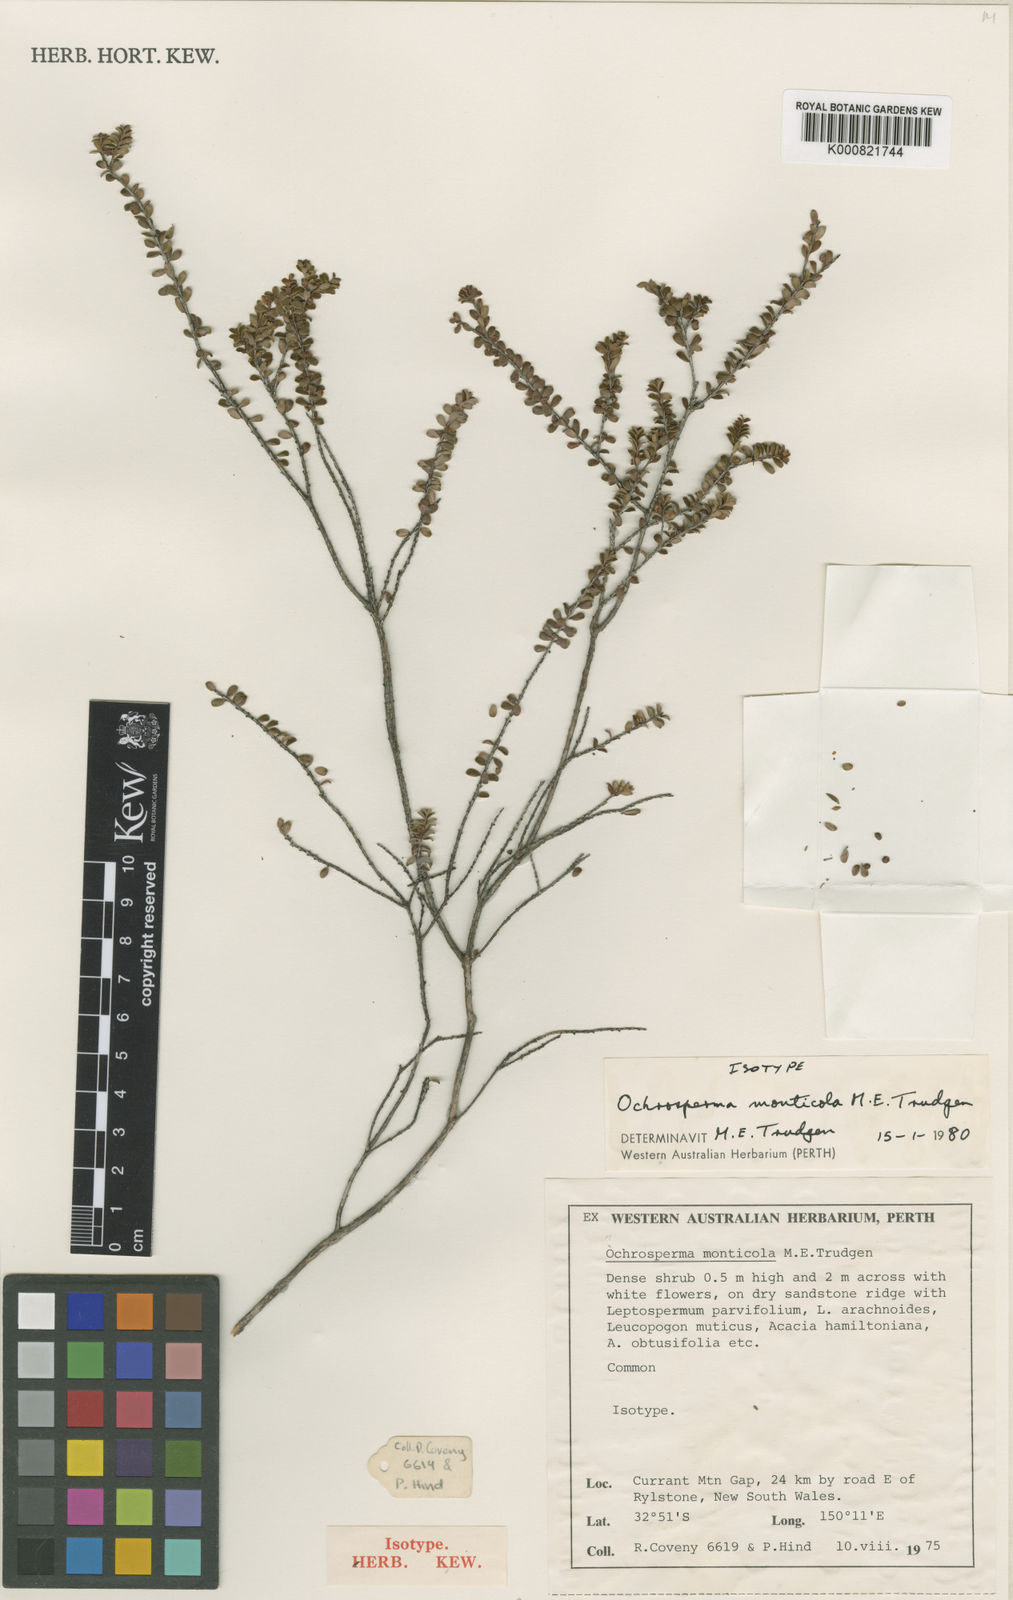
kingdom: Plantae
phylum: Tracheophyta
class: Magnoliopsida
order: Myrtales
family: Myrtaceae
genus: Ochrosperma
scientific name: Ochrosperma oligomerum
